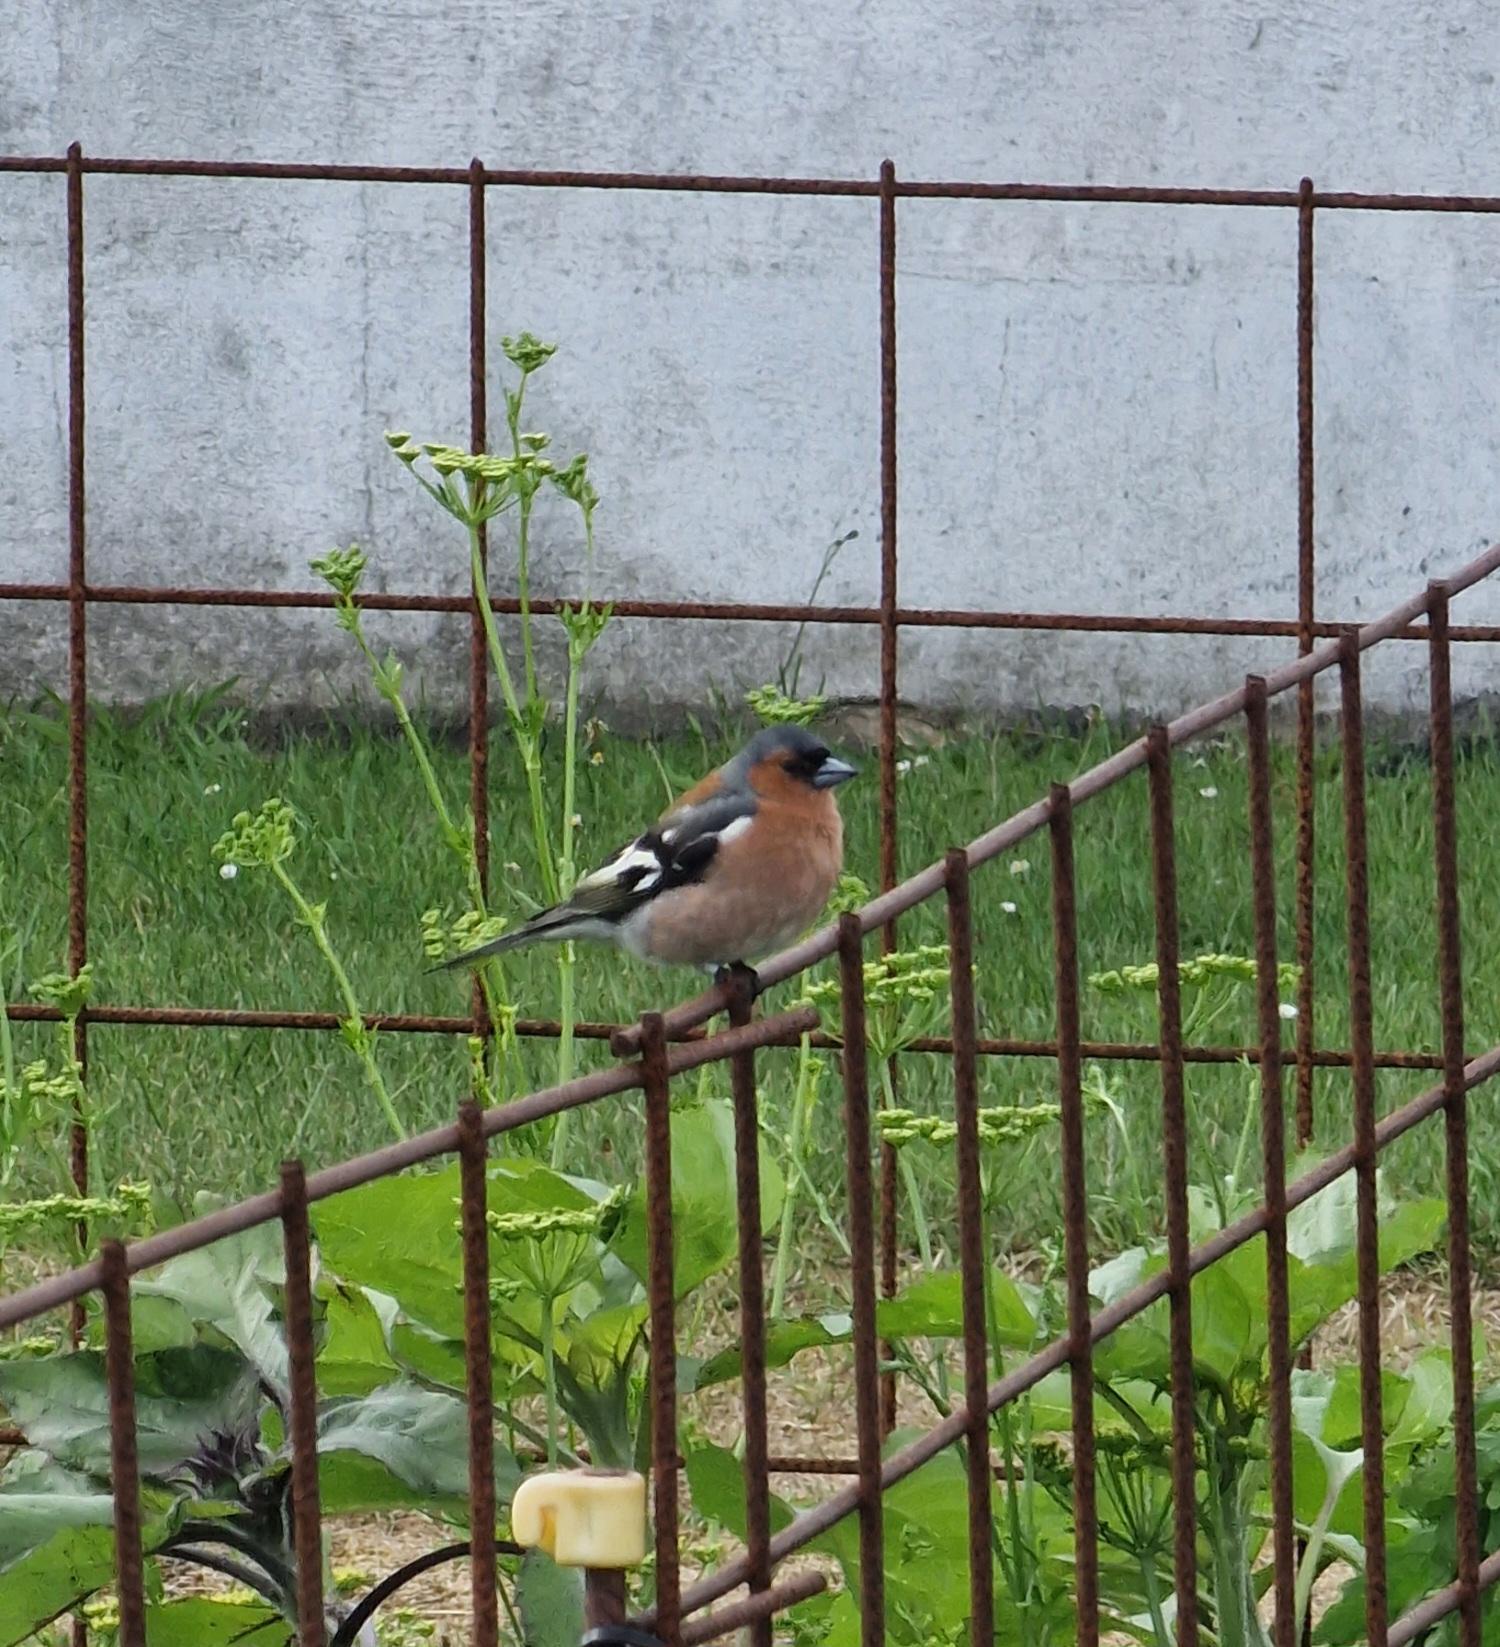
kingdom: Animalia
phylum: Chordata
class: Aves
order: Passeriformes
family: Fringillidae
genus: Fringilla
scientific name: Fringilla coelebs
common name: Bogfinke
